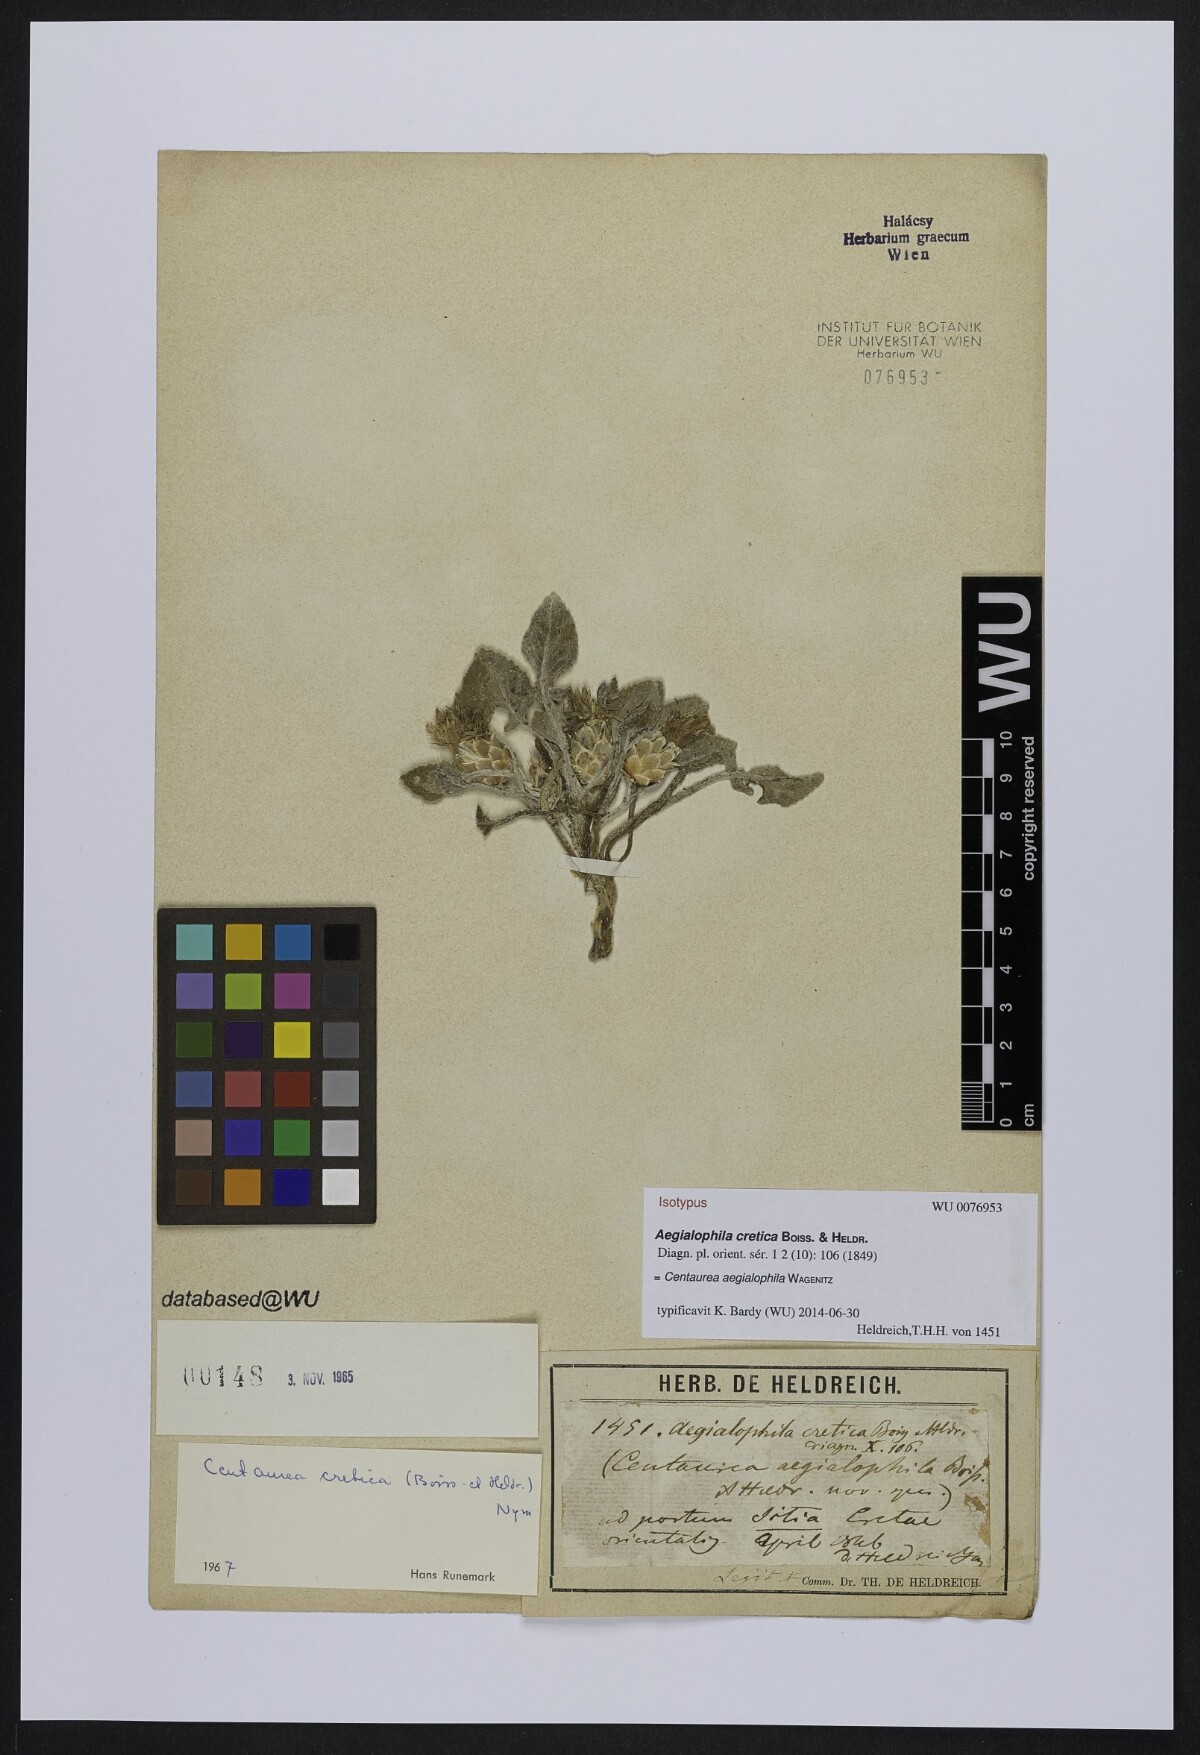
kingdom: Plantae
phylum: Tracheophyta
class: Magnoliopsida
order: Asterales
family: Asteraceae
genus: Crocodilium
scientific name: Crocodilium creticum
